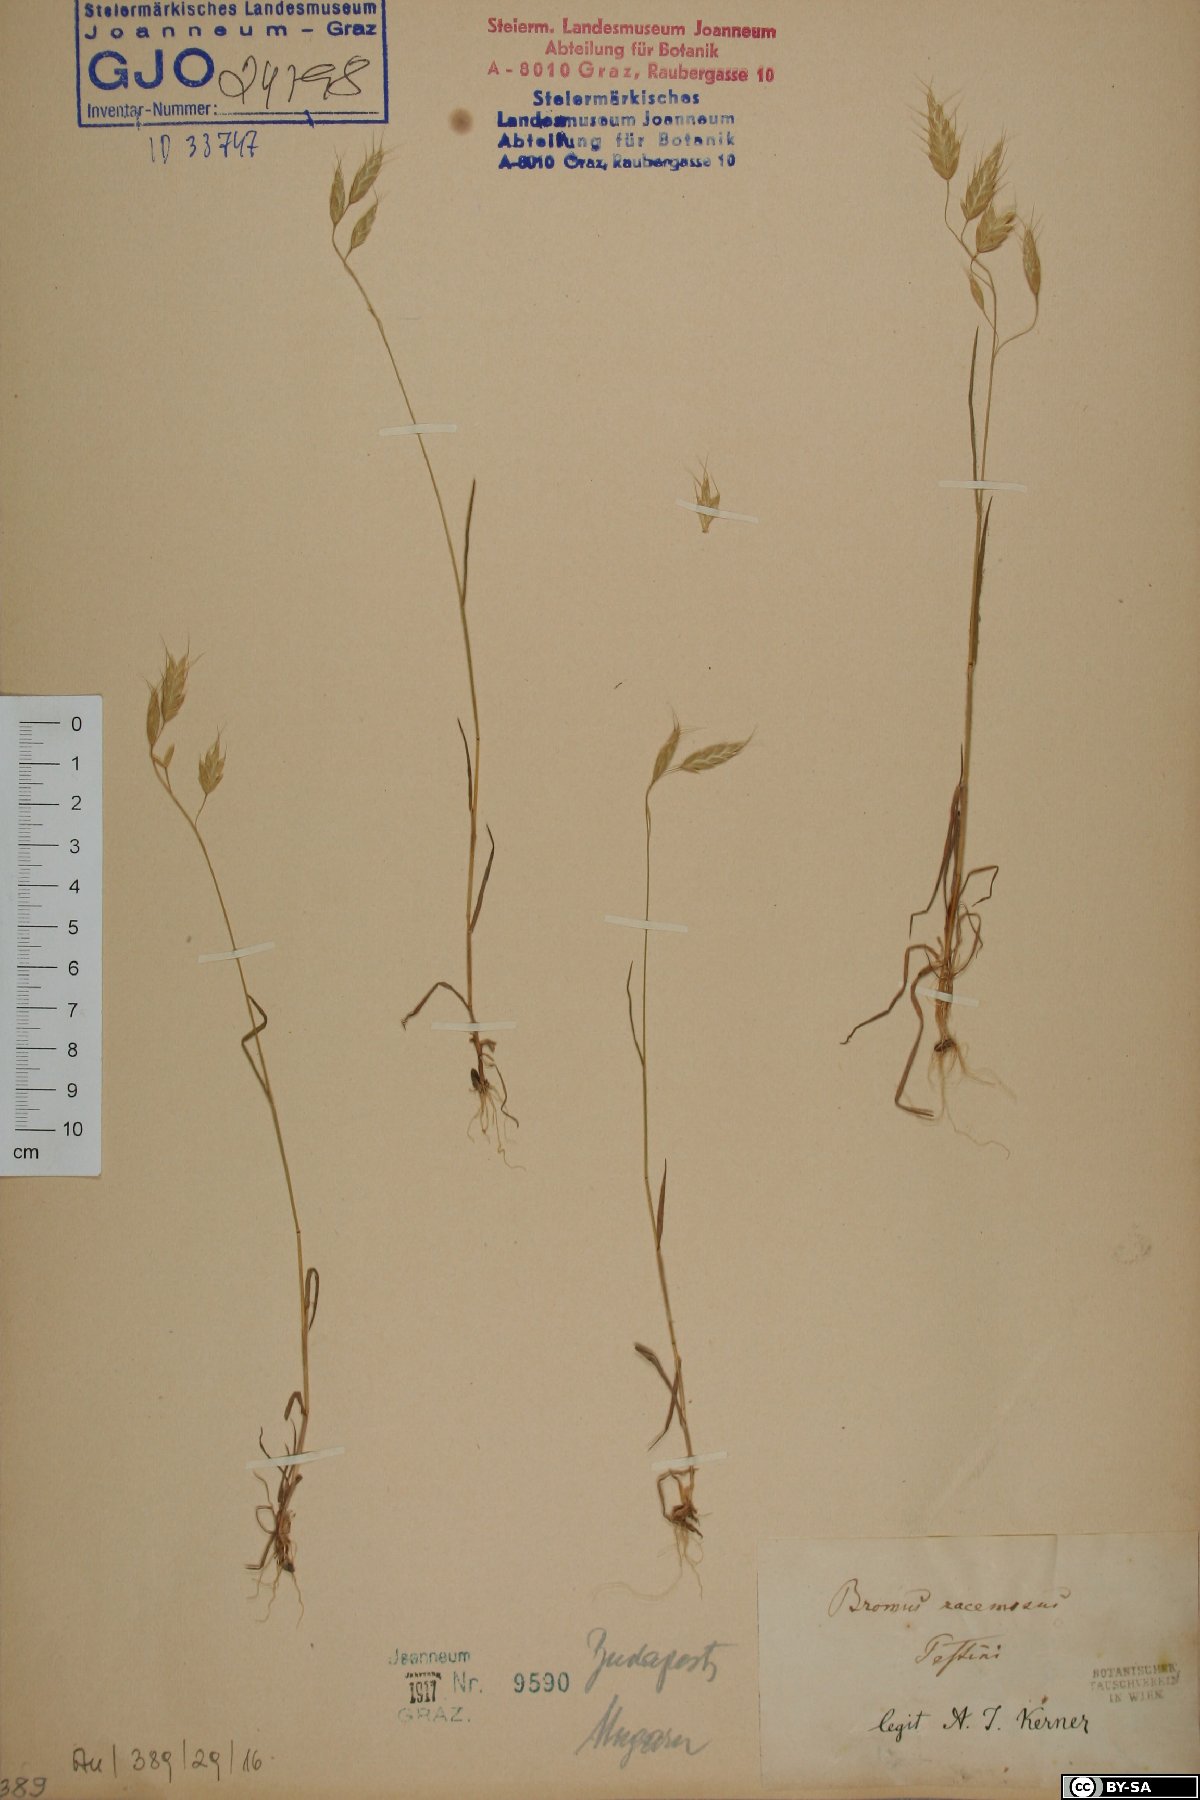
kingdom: Plantae
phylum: Tracheophyta
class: Liliopsida
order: Poales
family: Poaceae
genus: Bromus
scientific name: Bromus racemosus
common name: Bald brome
